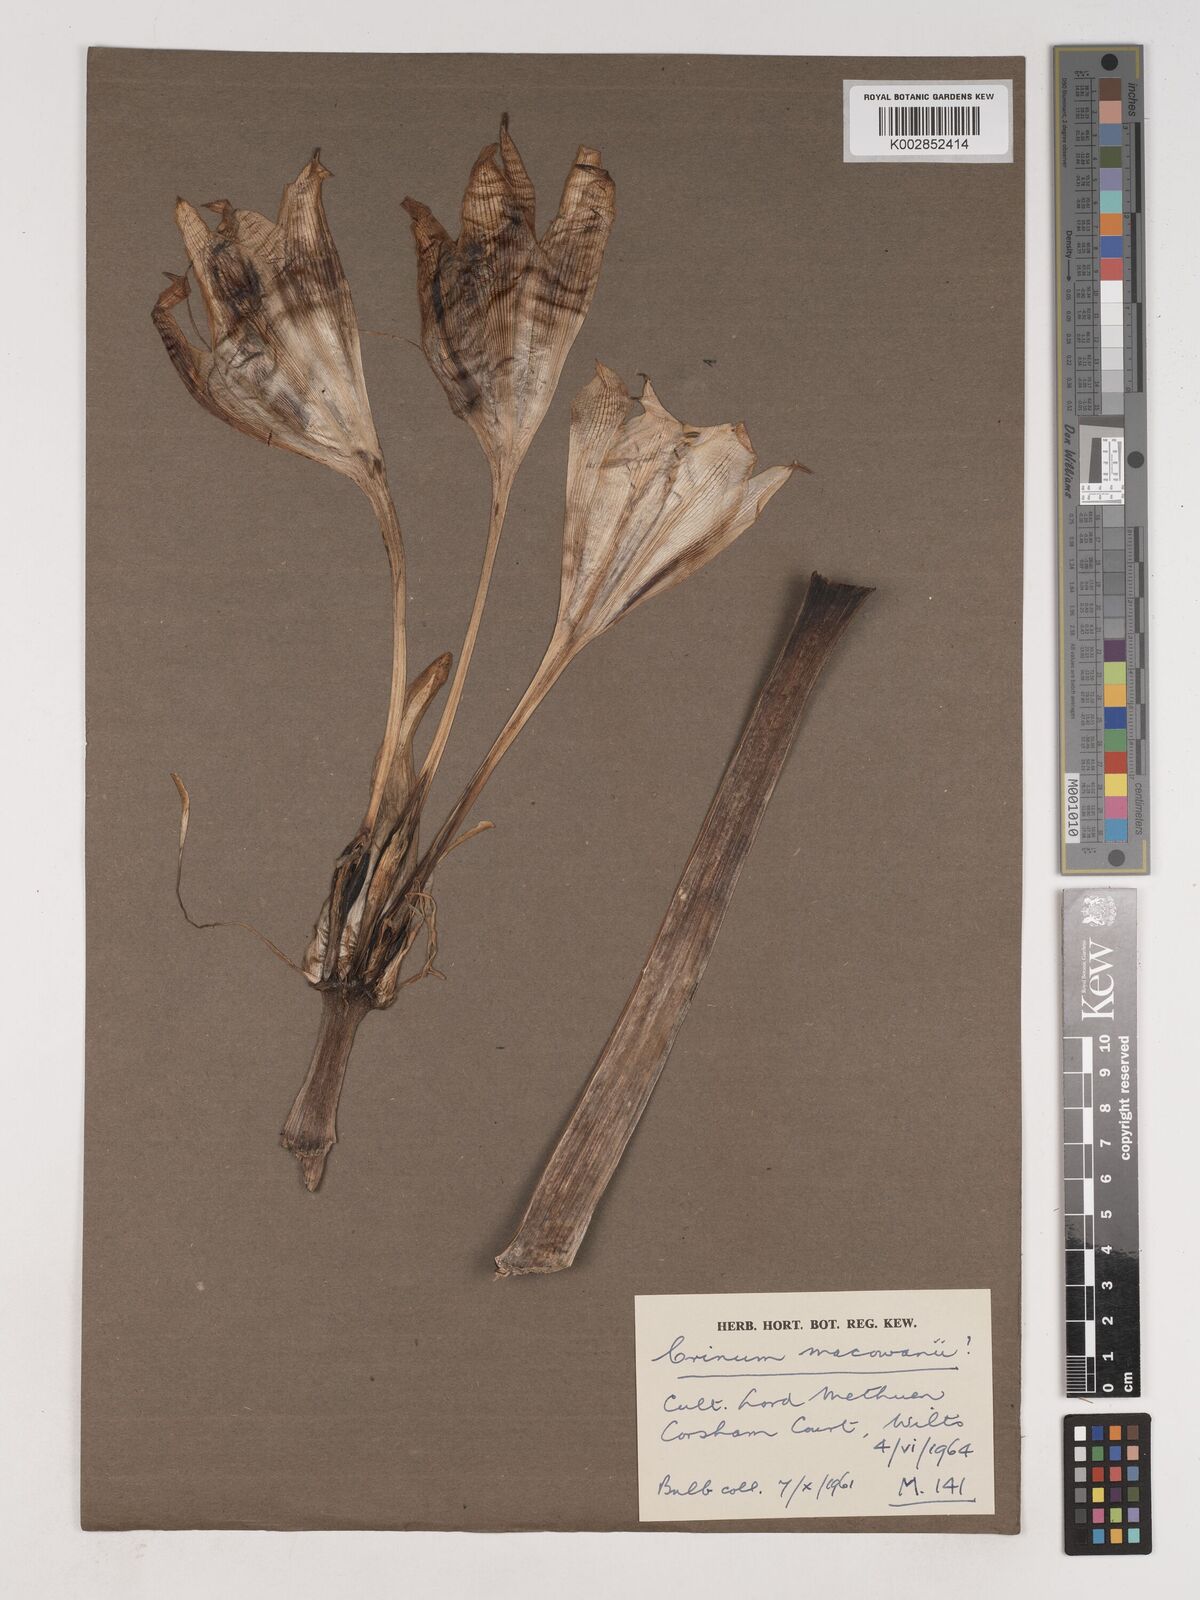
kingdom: Plantae
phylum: Tracheophyta
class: Liliopsida
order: Asparagales
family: Amaryllidaceae
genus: Crinum
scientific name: Crinum
